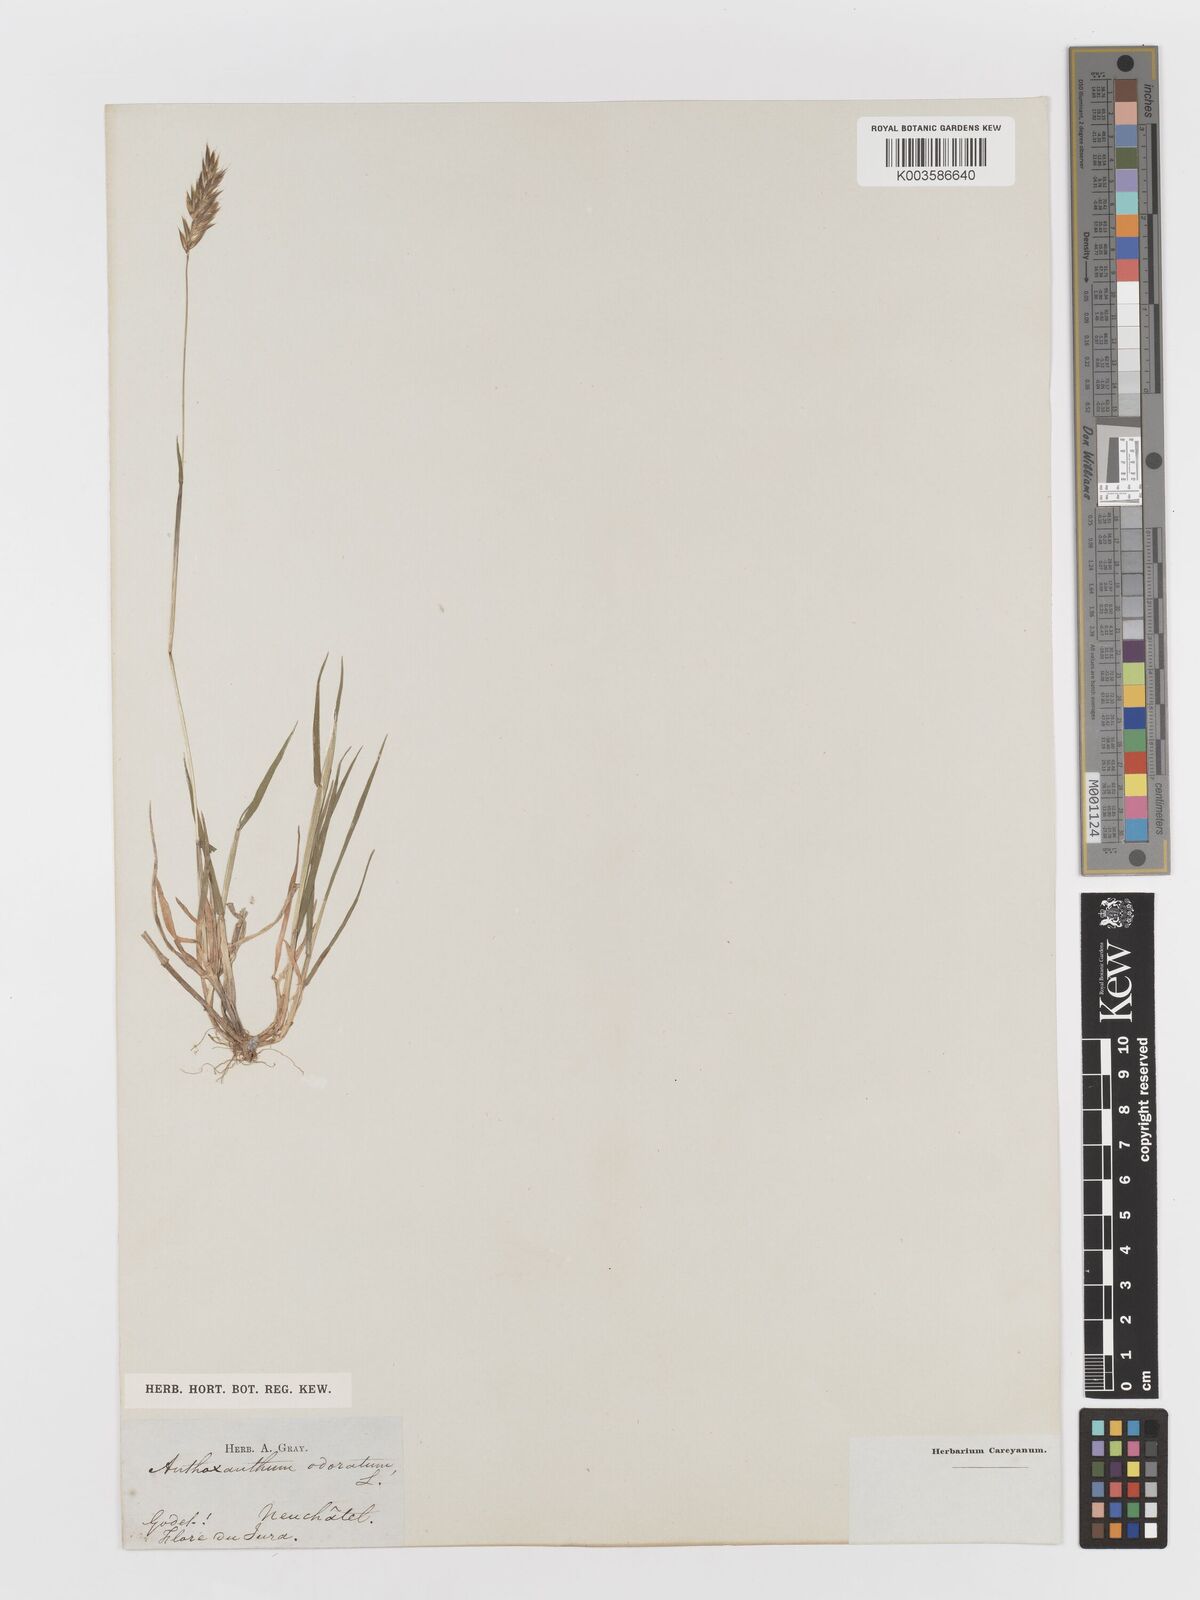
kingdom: Plantae
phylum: Tracheophyta
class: Liliopsida
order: Poales
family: Poaceae
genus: Anthoxanthum
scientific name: Anthoxanthum odoratum
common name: Sweet vernalgrass
